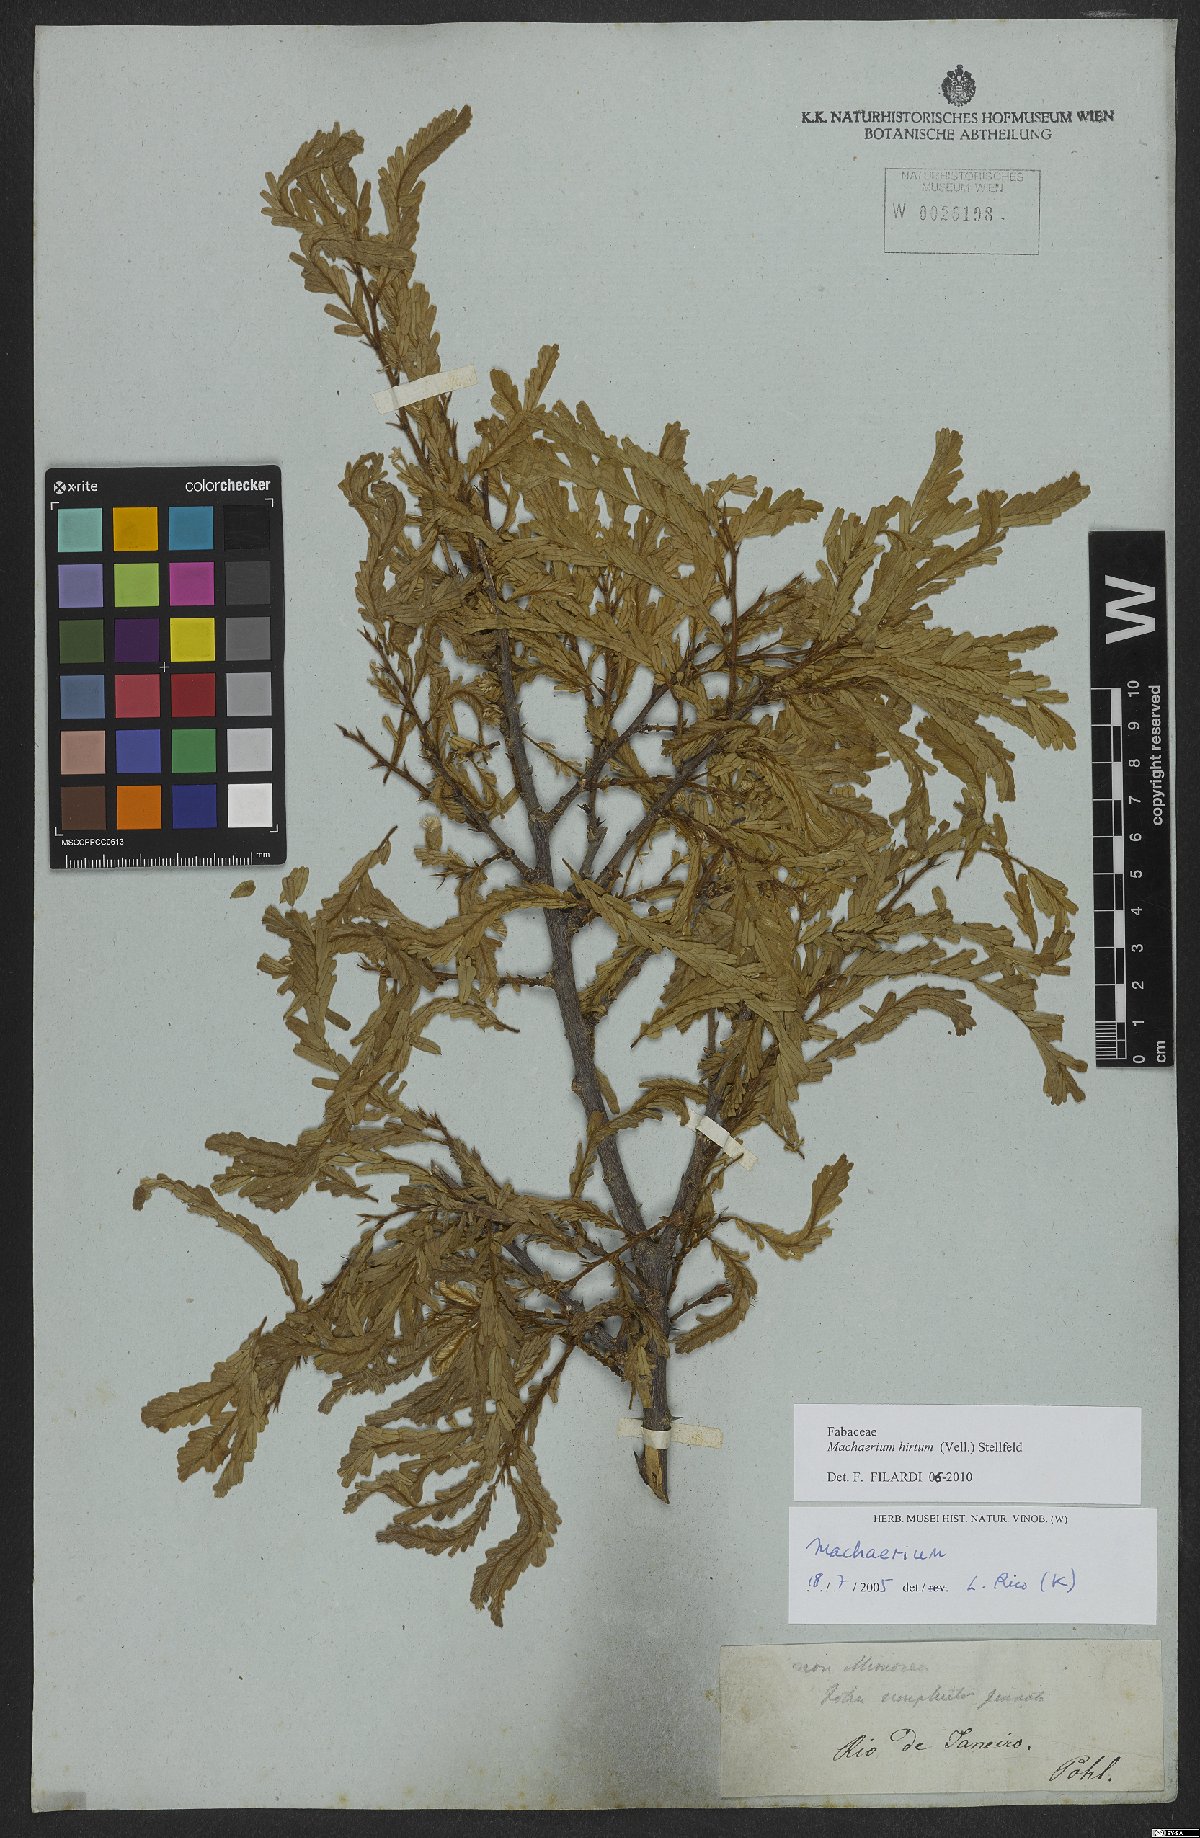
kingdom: Plantae
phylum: Tracheophyta
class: Magnoliopsida
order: Fabales
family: Fabaceae
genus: Machaerium
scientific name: Machaerium hirtum
